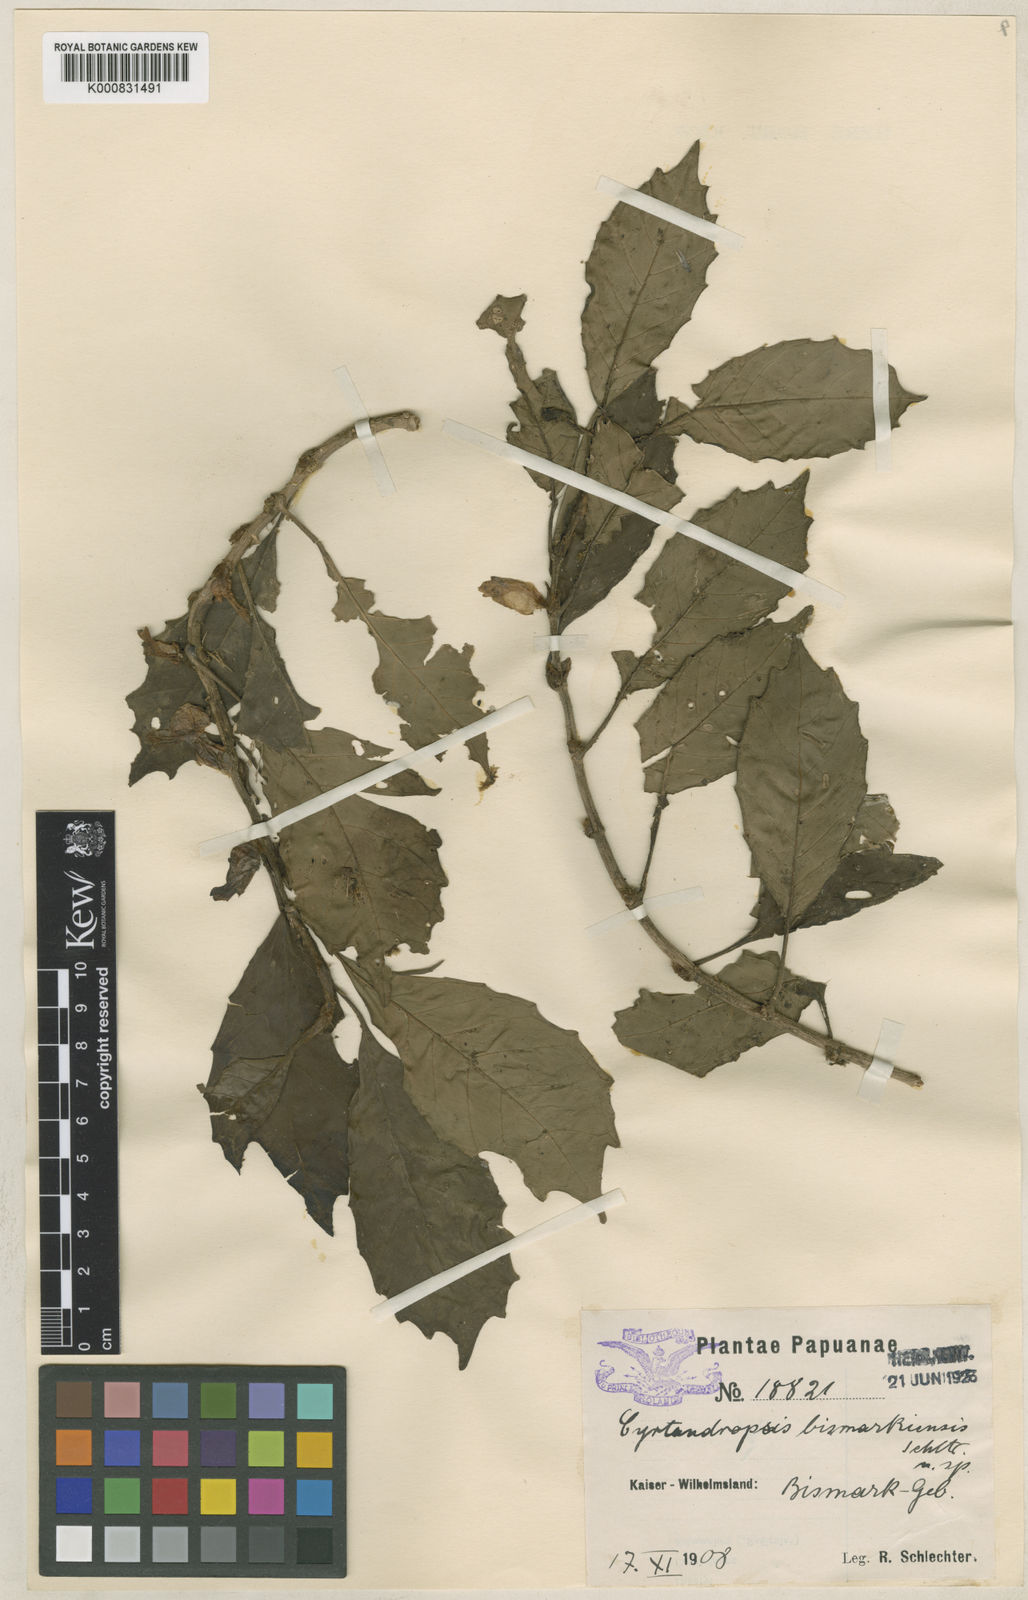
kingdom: Plantae
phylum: Tracheophyta
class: Magnoliopsida
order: Lamiales
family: Gesneriaceae
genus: Cyrtandra
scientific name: Cyrtandra bismarckiensis
